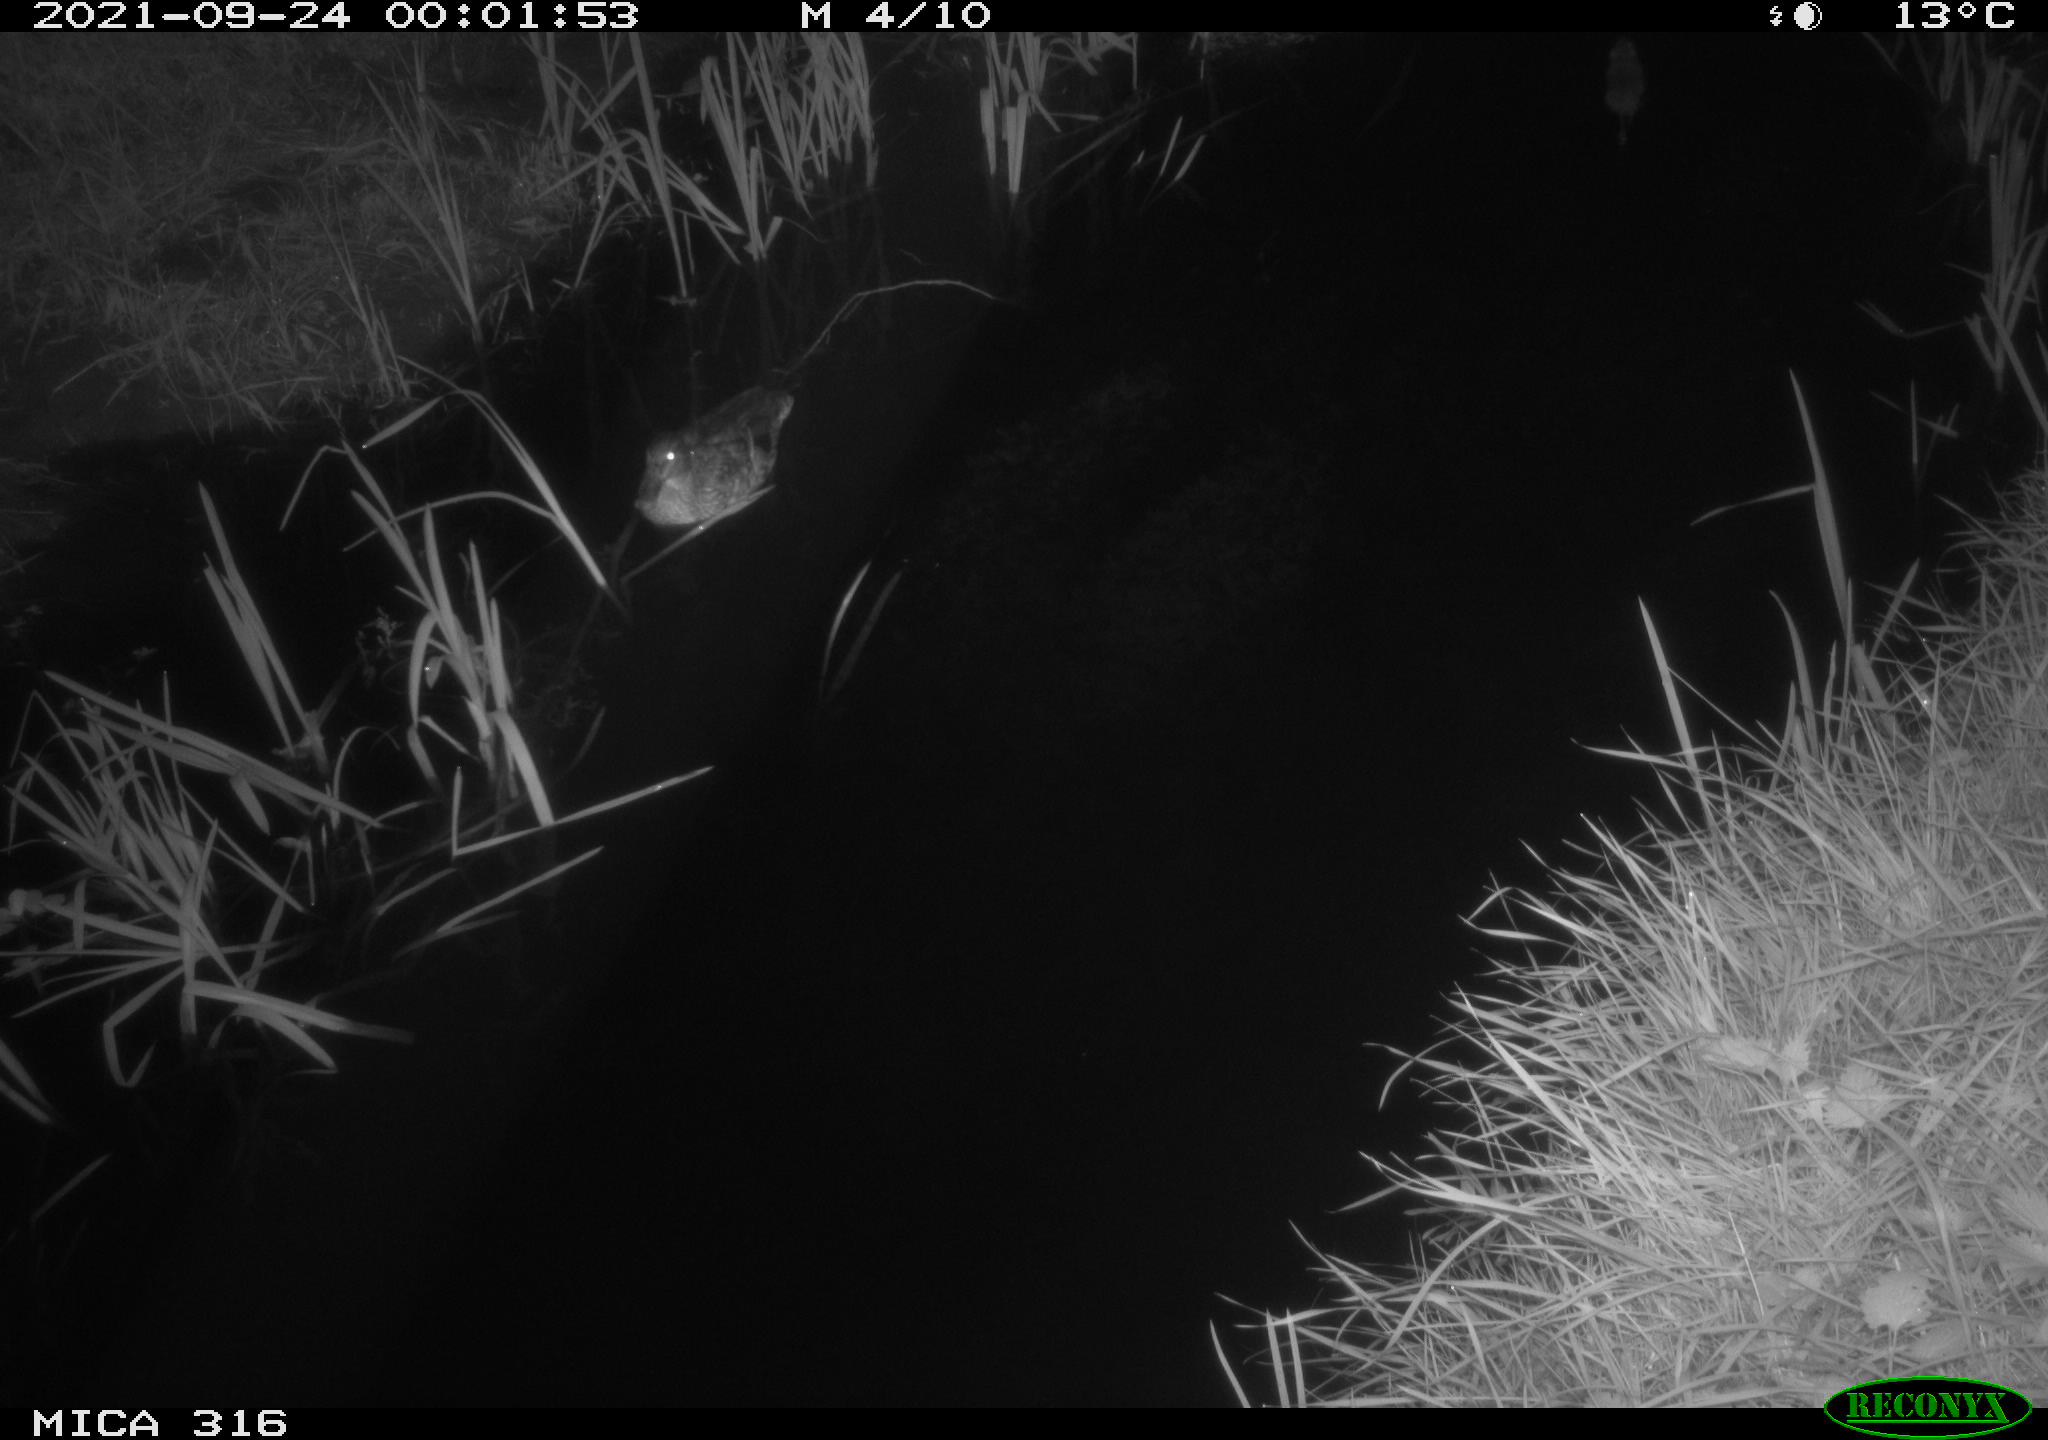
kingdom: Animalia
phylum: Chordata
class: Aves
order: Anseriformes
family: Anatidae
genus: Anas
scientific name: Anas platyrhynchos
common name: Mallard
